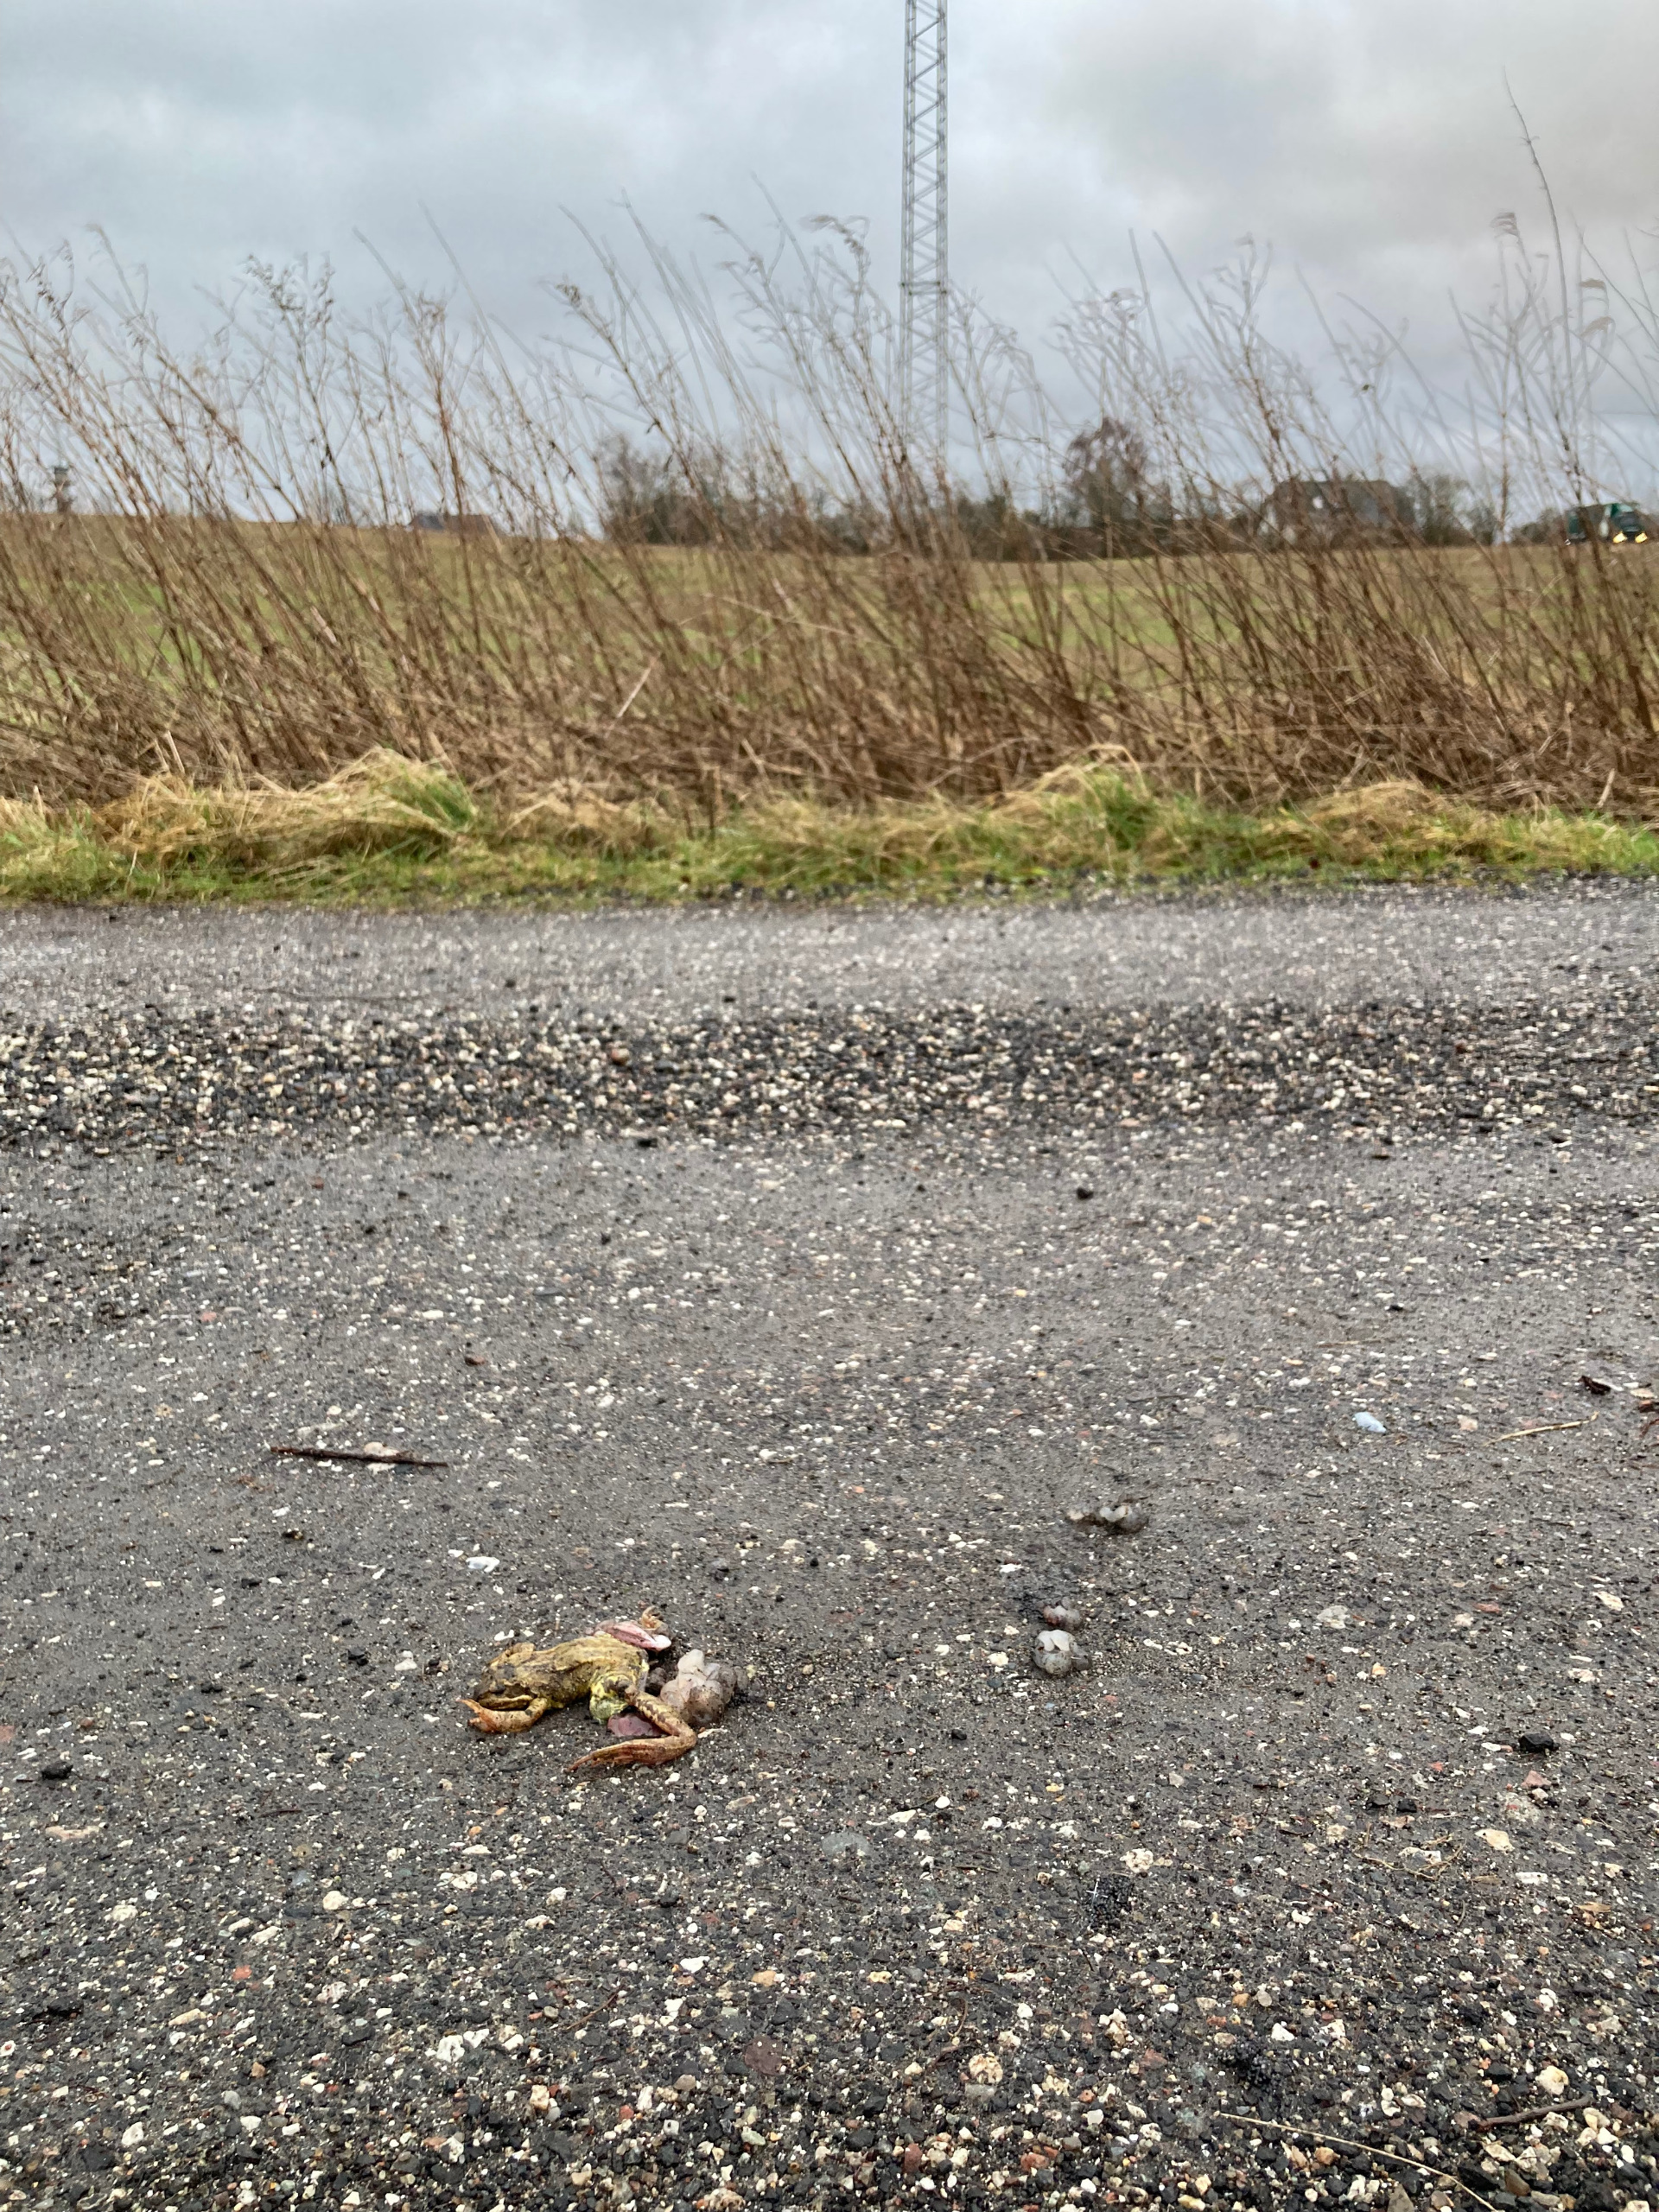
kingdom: Animalia
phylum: Chordata
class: Amphibia
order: Anura
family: Ranidae
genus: Rana
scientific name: Rana temporaria
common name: Butsnudet frø
